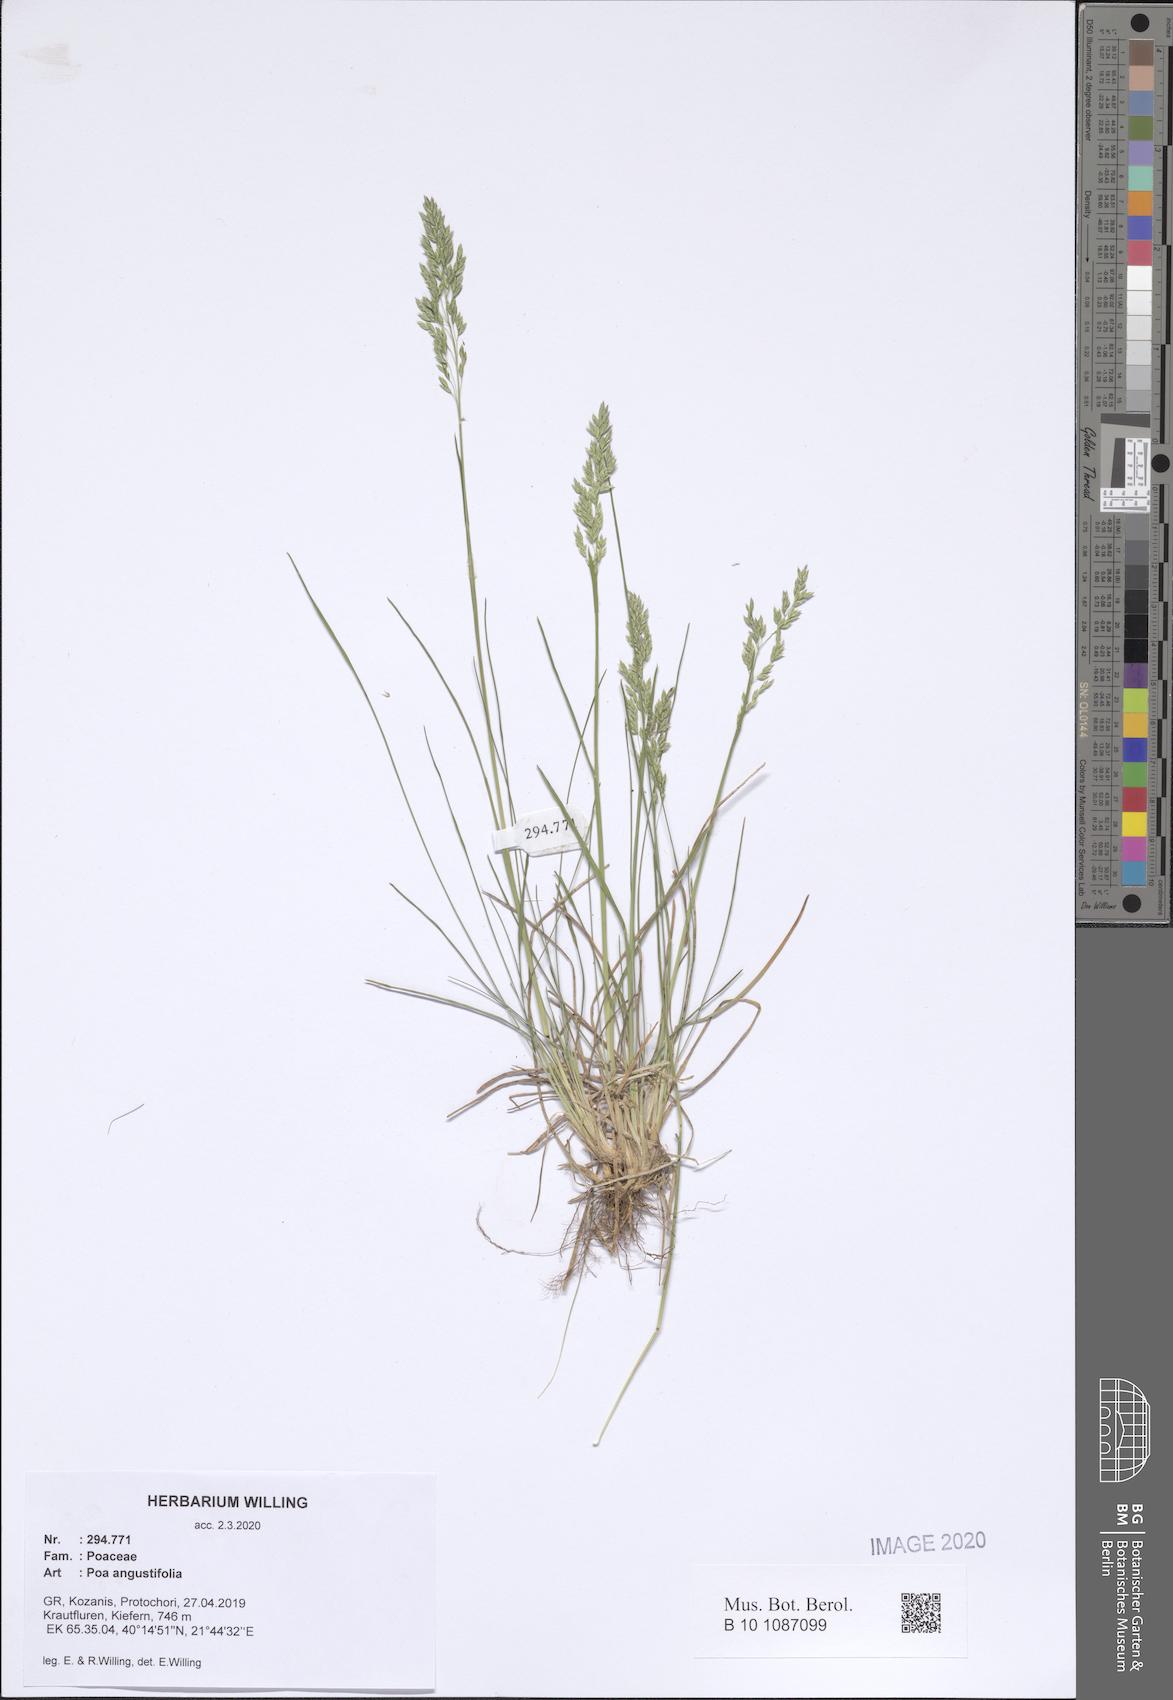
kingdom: Plantae
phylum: Tracheophyta
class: Liliopsida
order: Poales
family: Poaceae
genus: Poa
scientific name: Poa angustifolia
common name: Narrow-leaved meadow-grass
